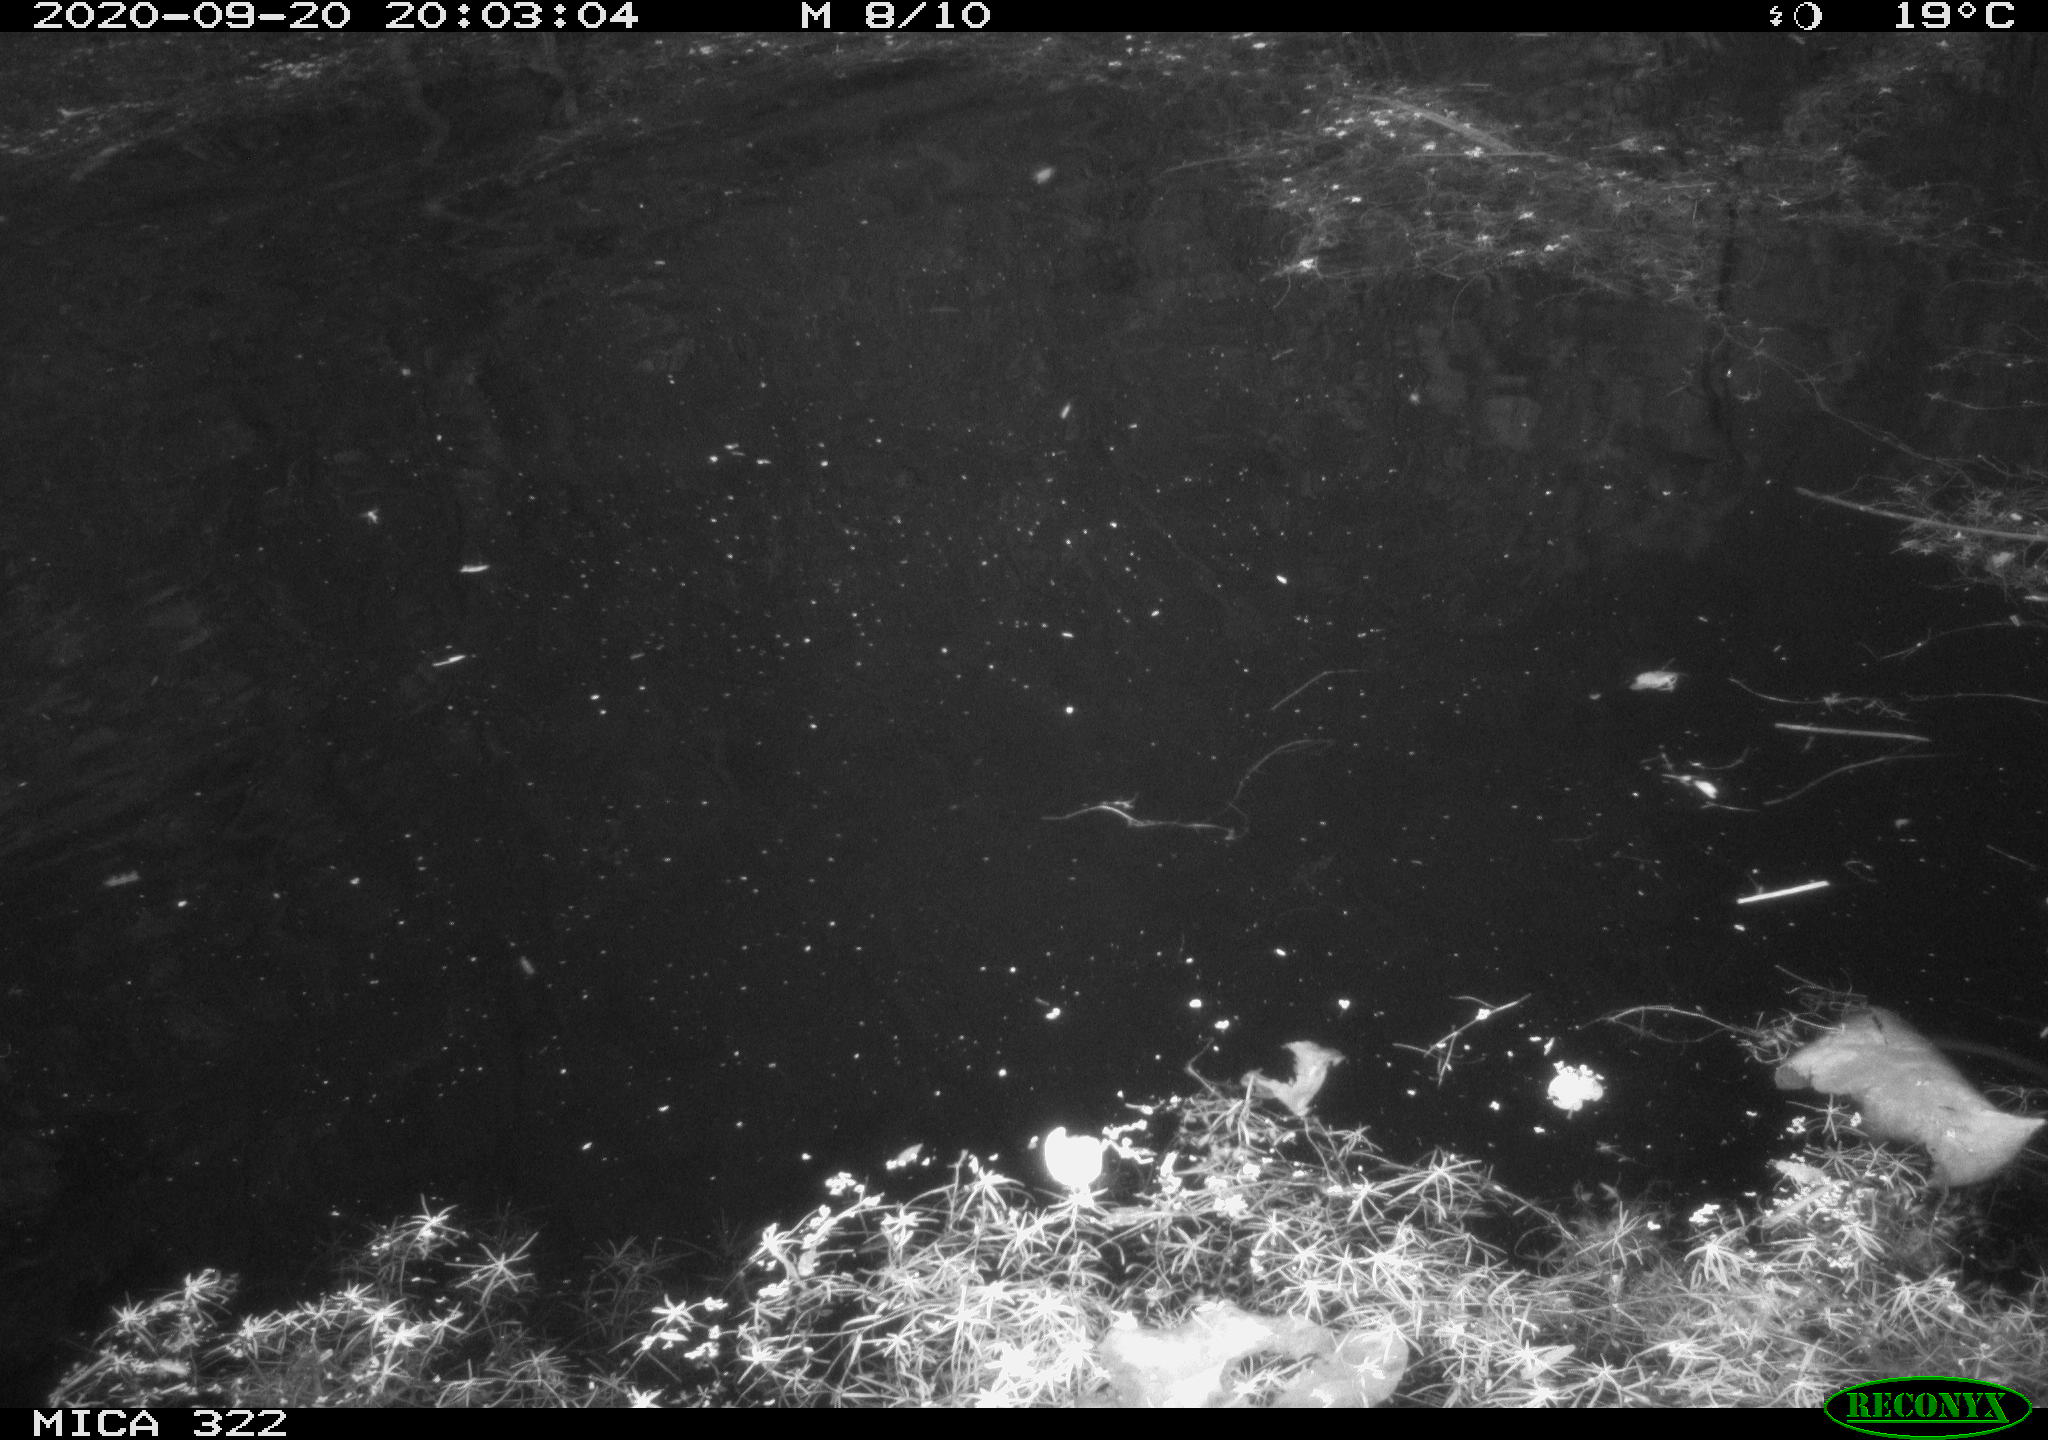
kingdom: Animalia
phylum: Chordata
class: Aves
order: Gruiformes
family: Rallidae
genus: Fulica
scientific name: Fulica atra
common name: Eurasian coot
